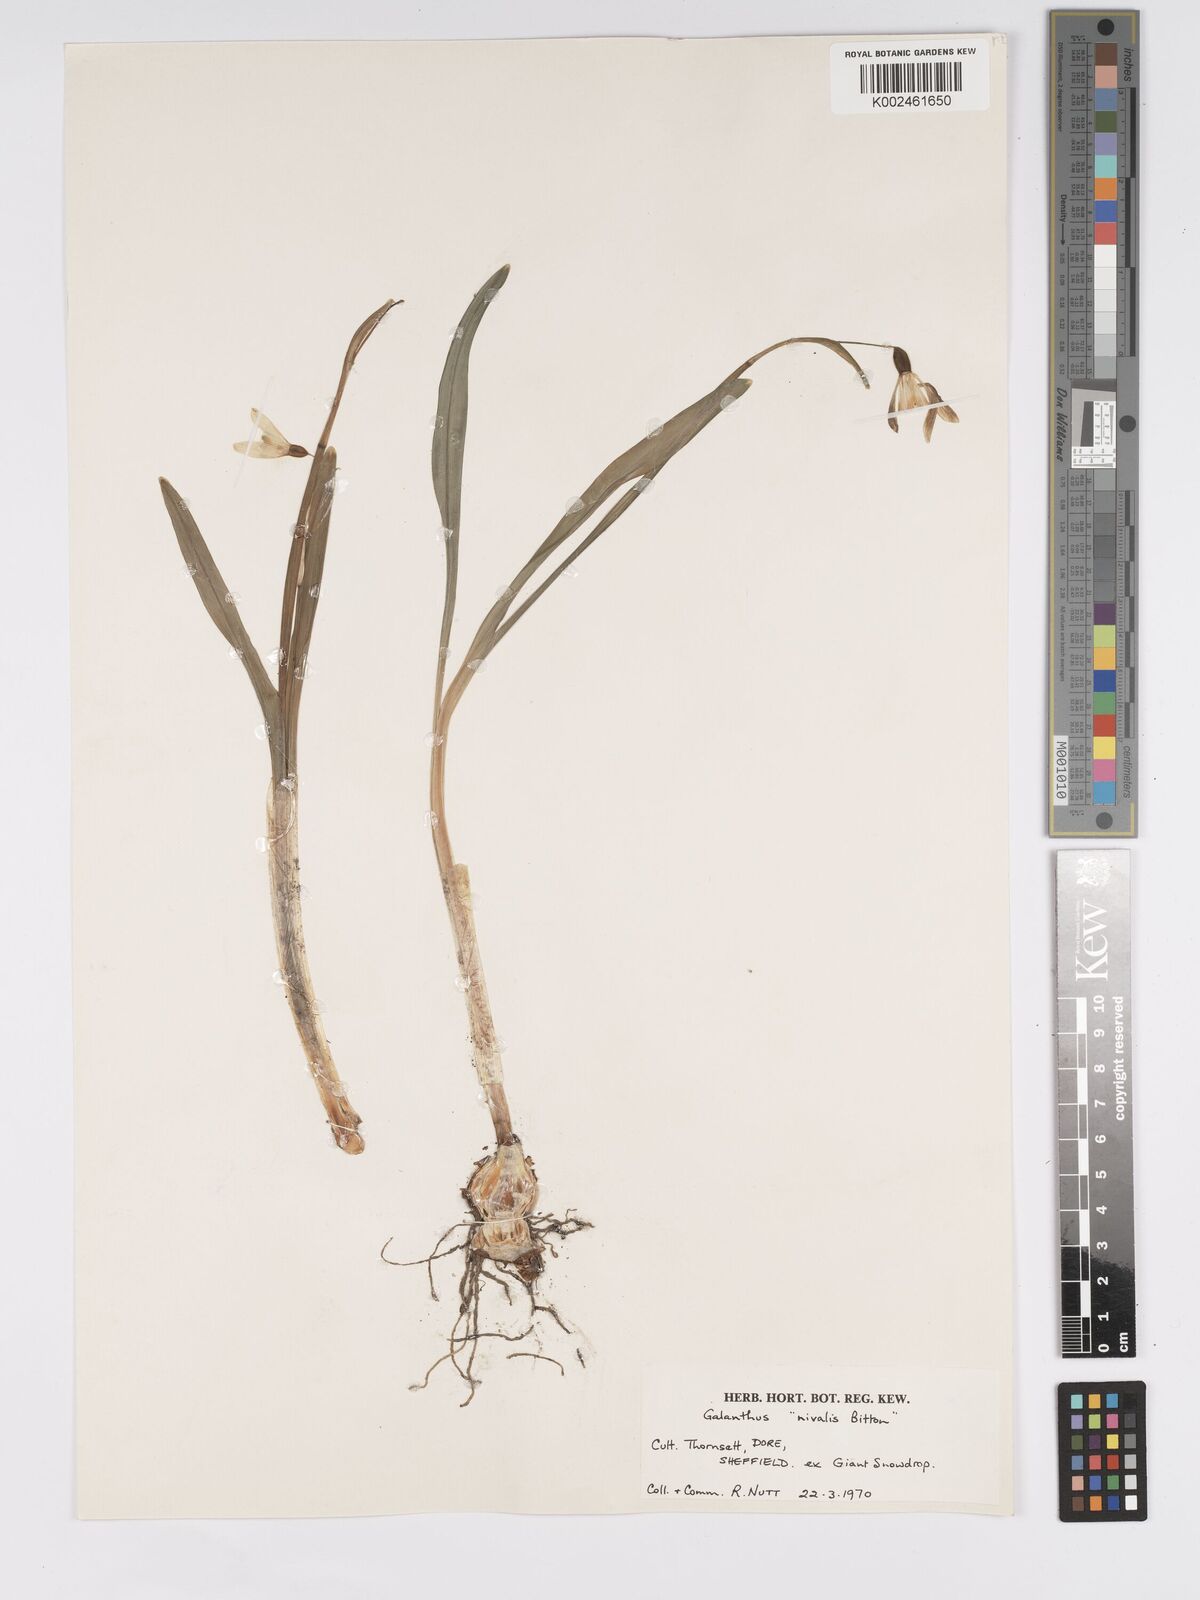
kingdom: Plantae
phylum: Tracheophyta
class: Liliopsida
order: Asparagales
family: Amaryllidaceae
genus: Galanthus
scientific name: Galanthus nivalis
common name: Snowdrop
